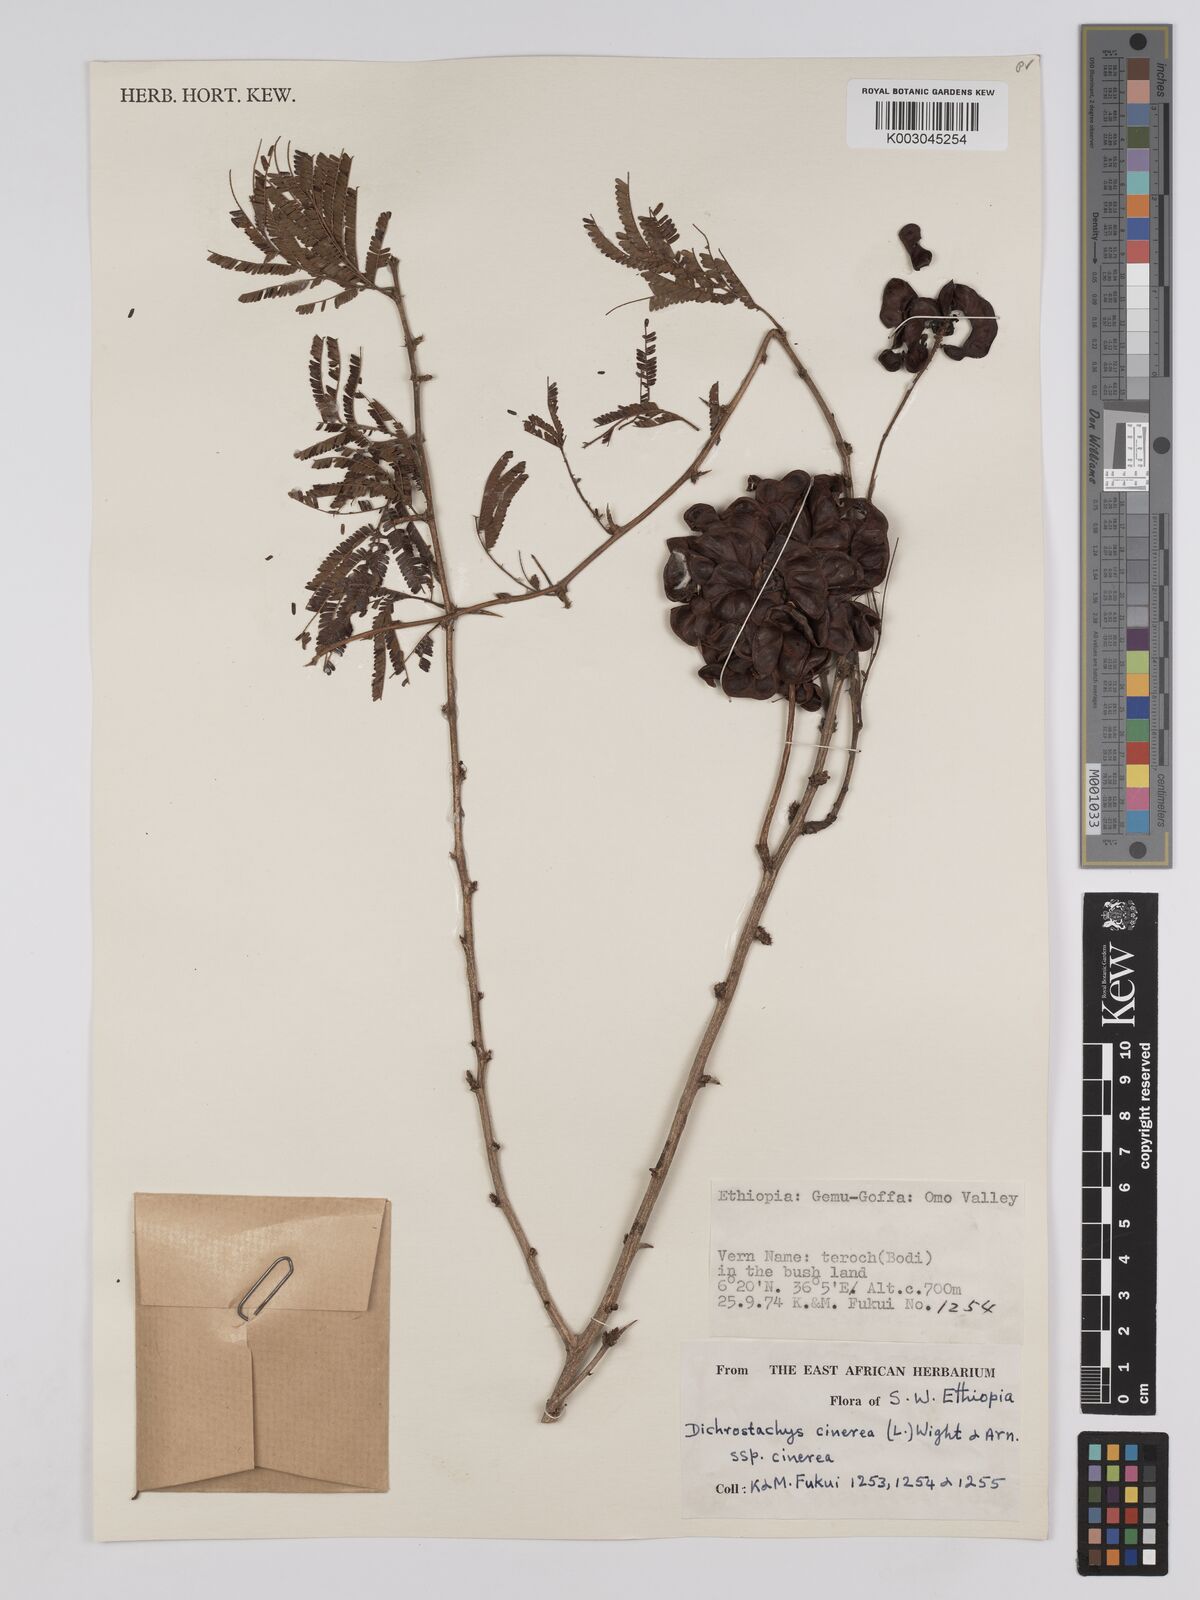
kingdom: Plantae
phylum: Tracheophyta
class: Magnoliopsida
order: Fabales
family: Fabaceae
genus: Dichrostachys
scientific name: Dichrostachys cinerea
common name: Sicklebush
